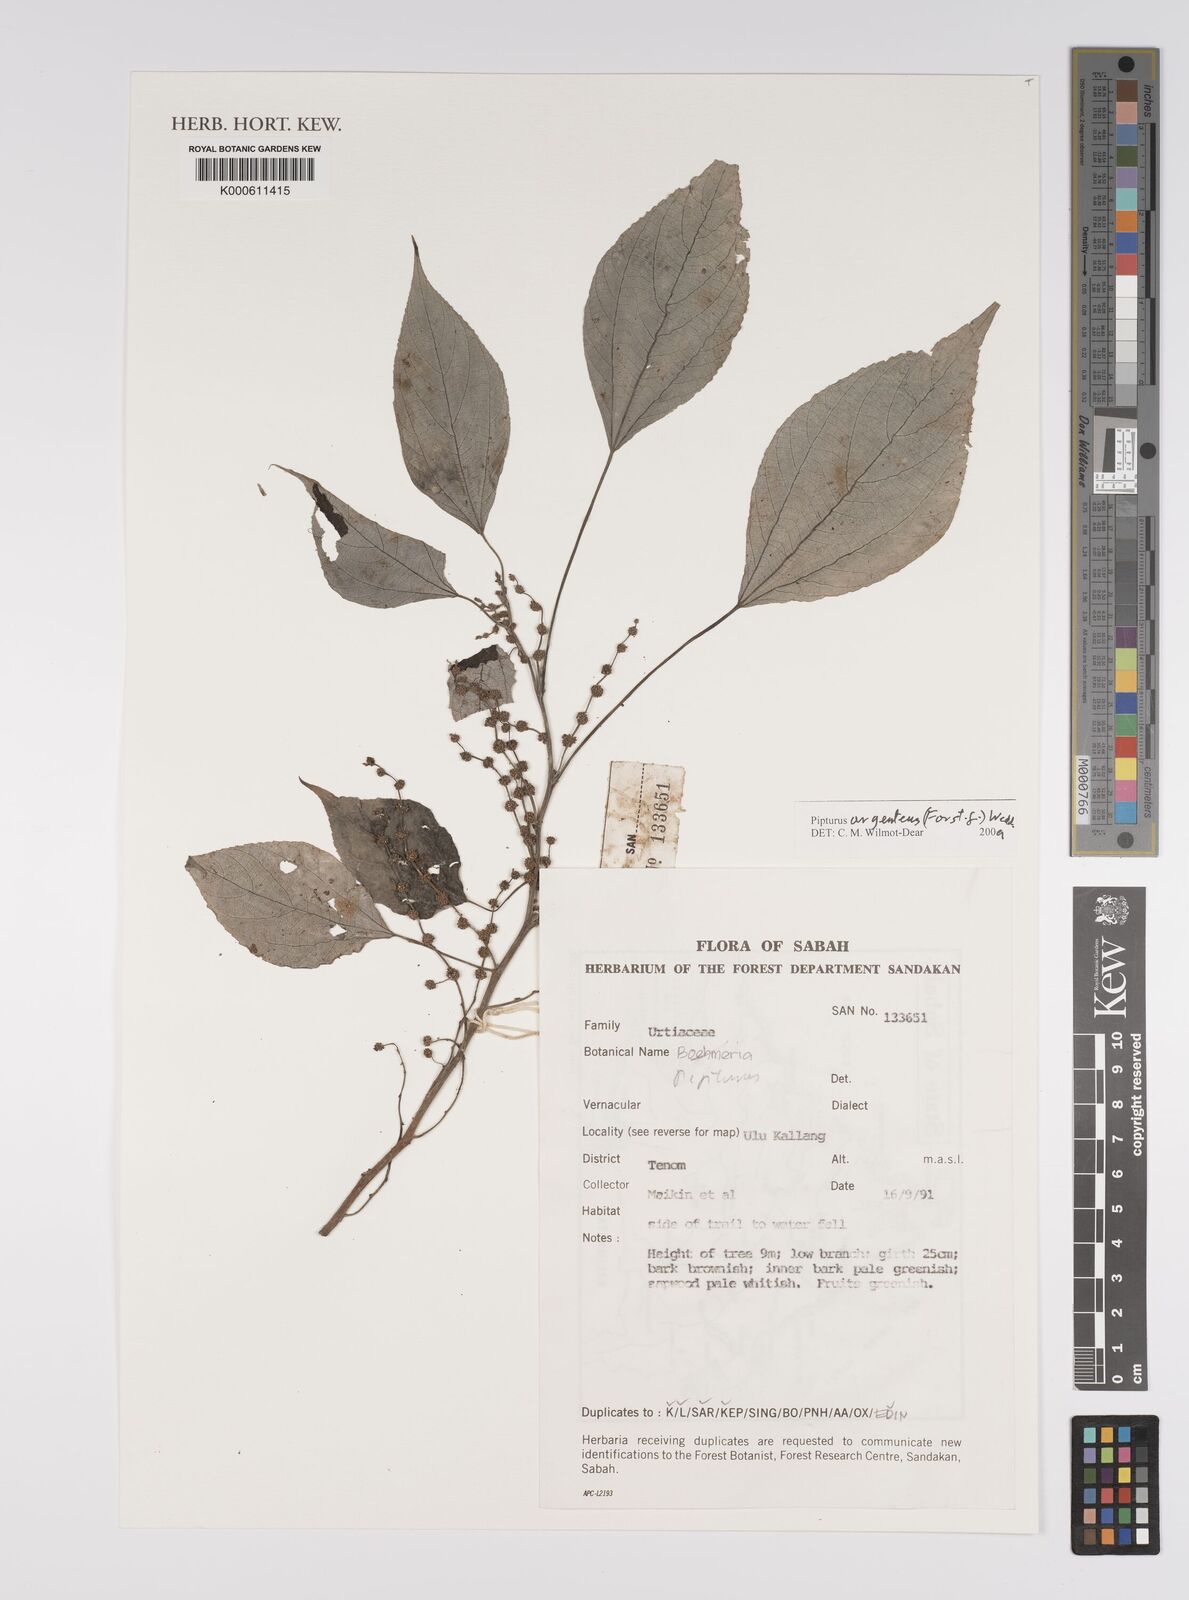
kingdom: Plantae
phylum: Tracheophyta
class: Magnoliopsida
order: Rosales
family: Urticaceae
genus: Pipturus
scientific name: Pipturus
